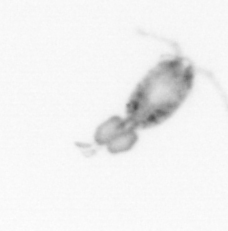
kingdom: Animalia
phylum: Arthropoda
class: Copepoda
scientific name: Copepoda
